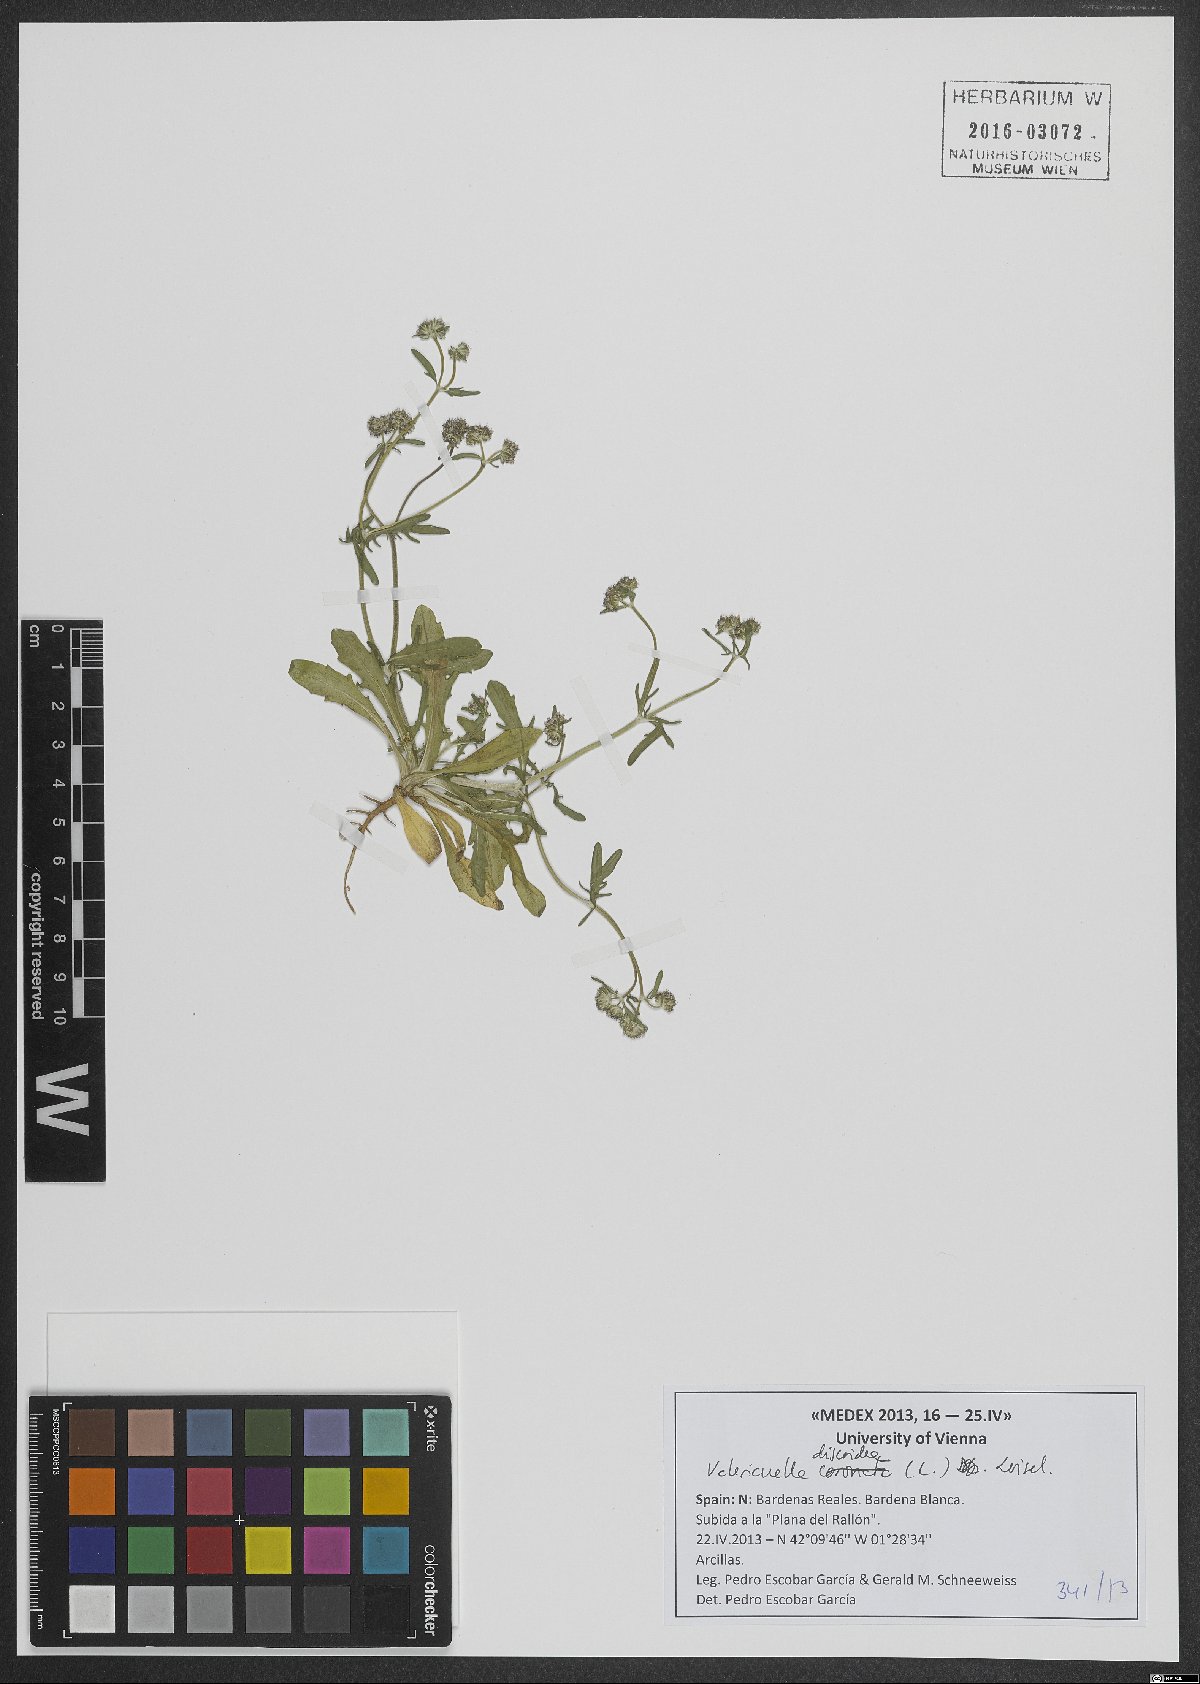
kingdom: Plantae
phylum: Tracheophyta
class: Magnoliopsida
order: Dipsacales
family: Caprifoliaceae
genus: Valerianella
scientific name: Valerianella discoidea
